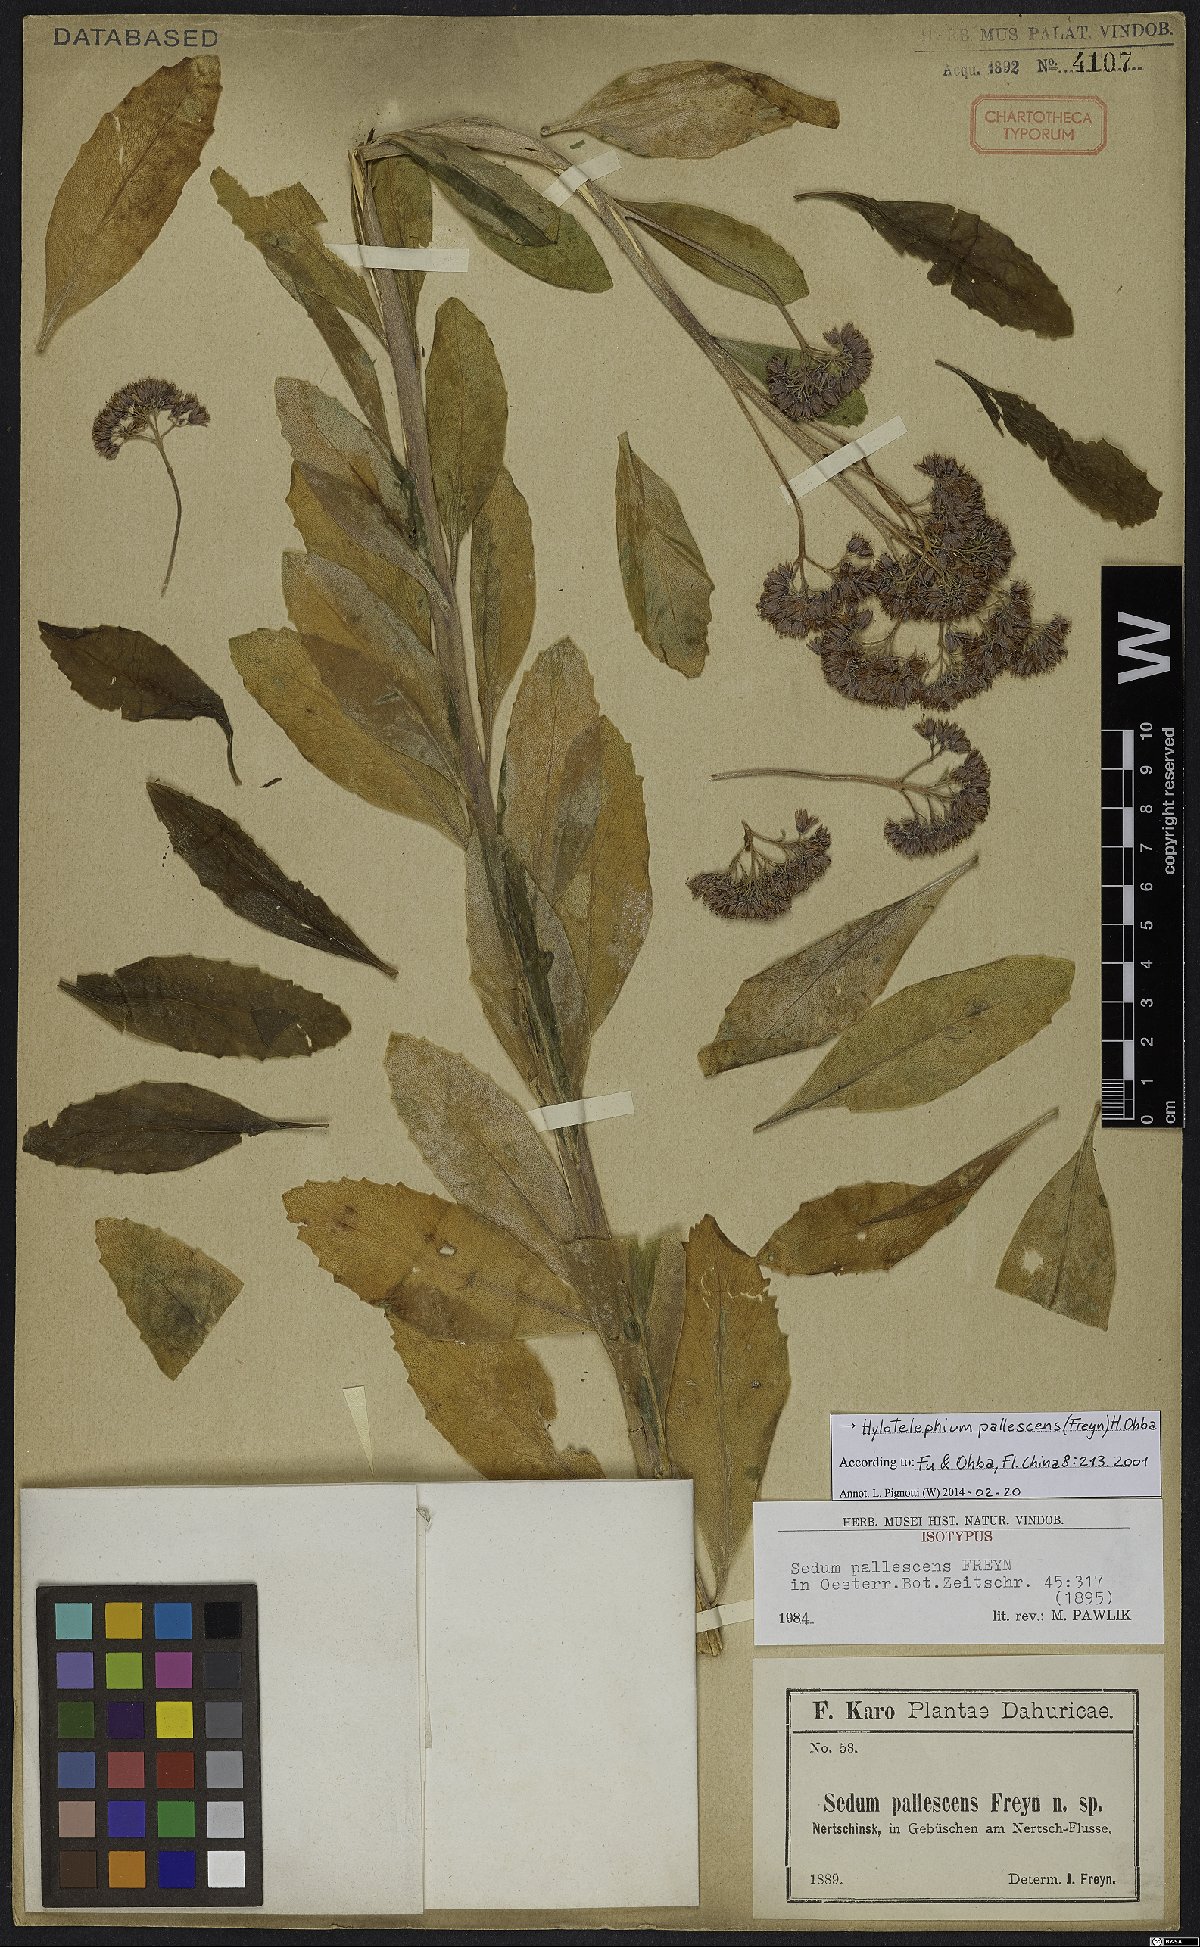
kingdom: Plantae
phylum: Tracheophyta
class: Magnoliopsida
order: Saxifragales
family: Crassulaceae
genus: Hylotelephium
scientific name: Hylotelephium pallescens
